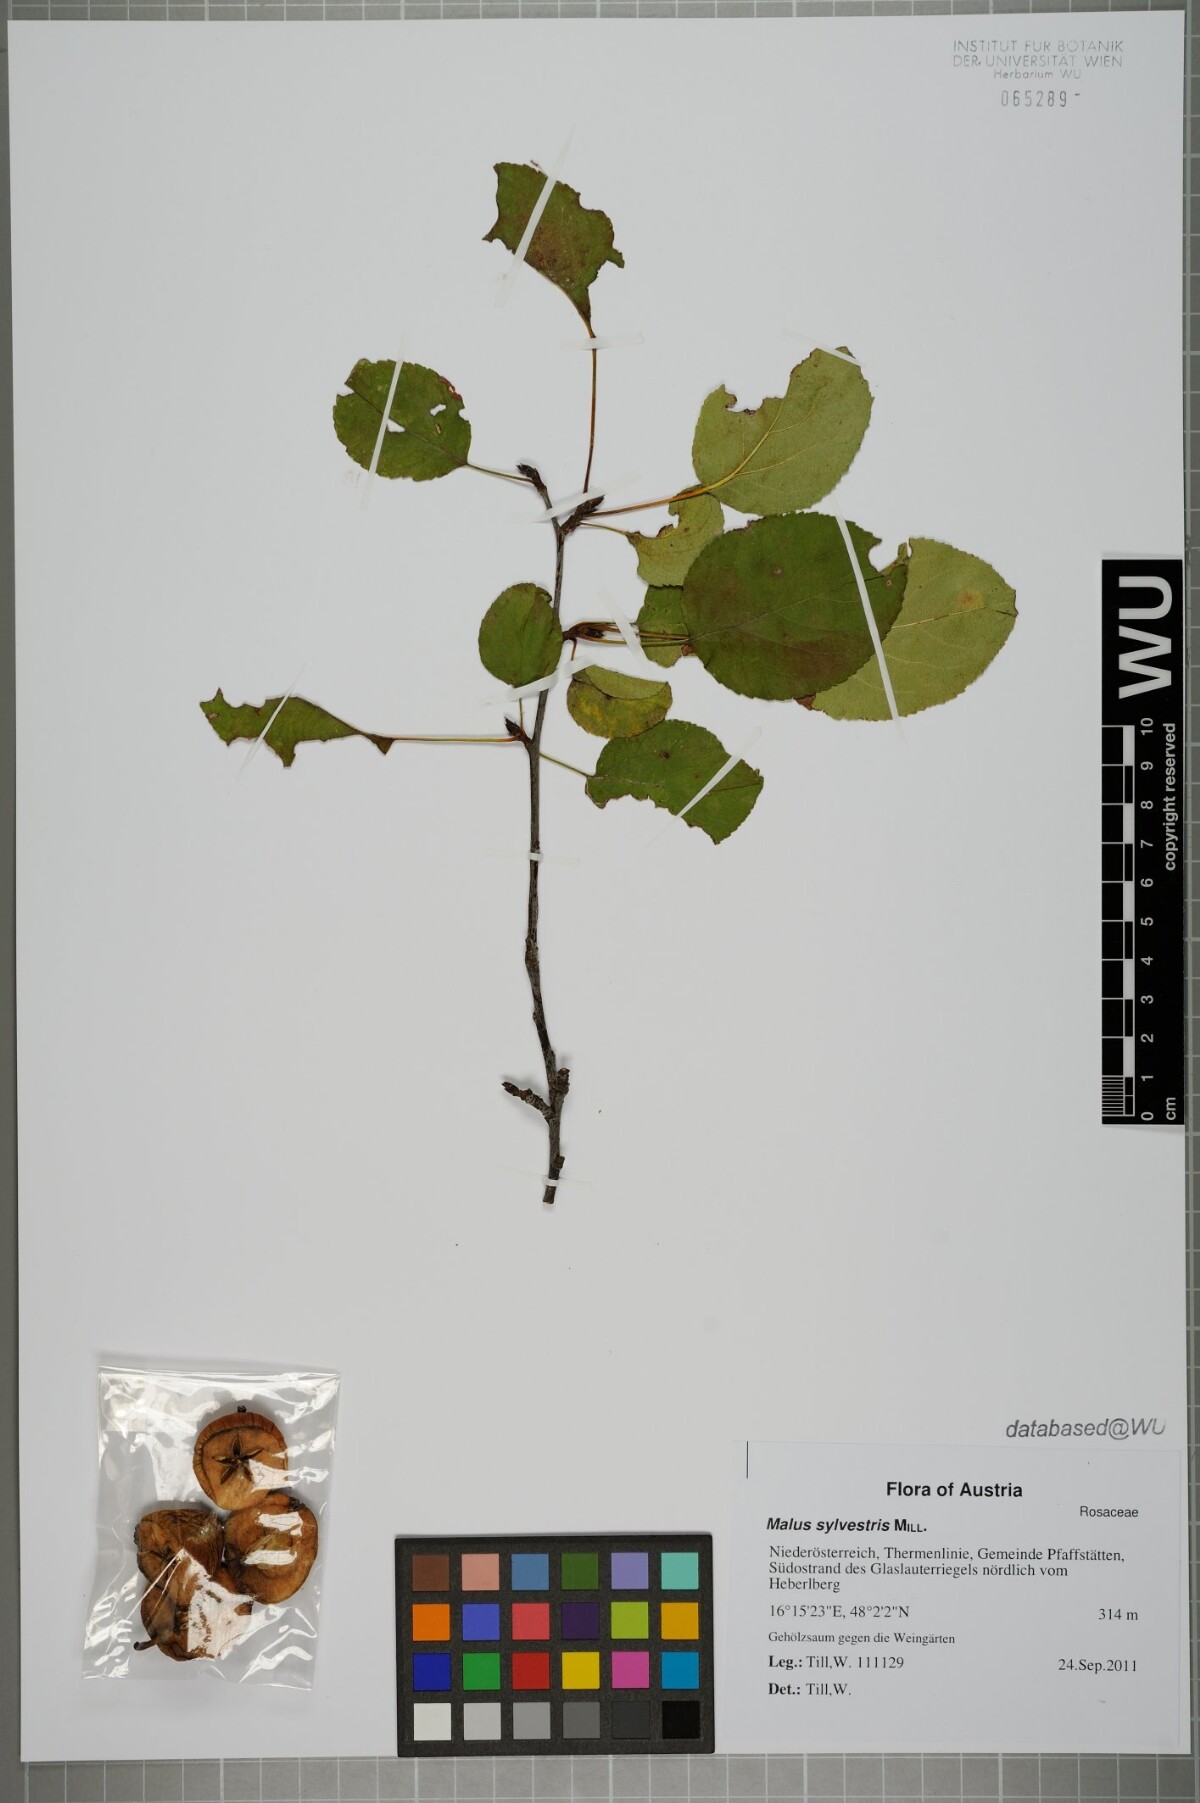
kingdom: Plantae
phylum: Tracheophyta
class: Magnoliopsida
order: Rosales
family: Rosaceae
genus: Malus
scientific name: Malus sylvestris
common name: Crab apple
